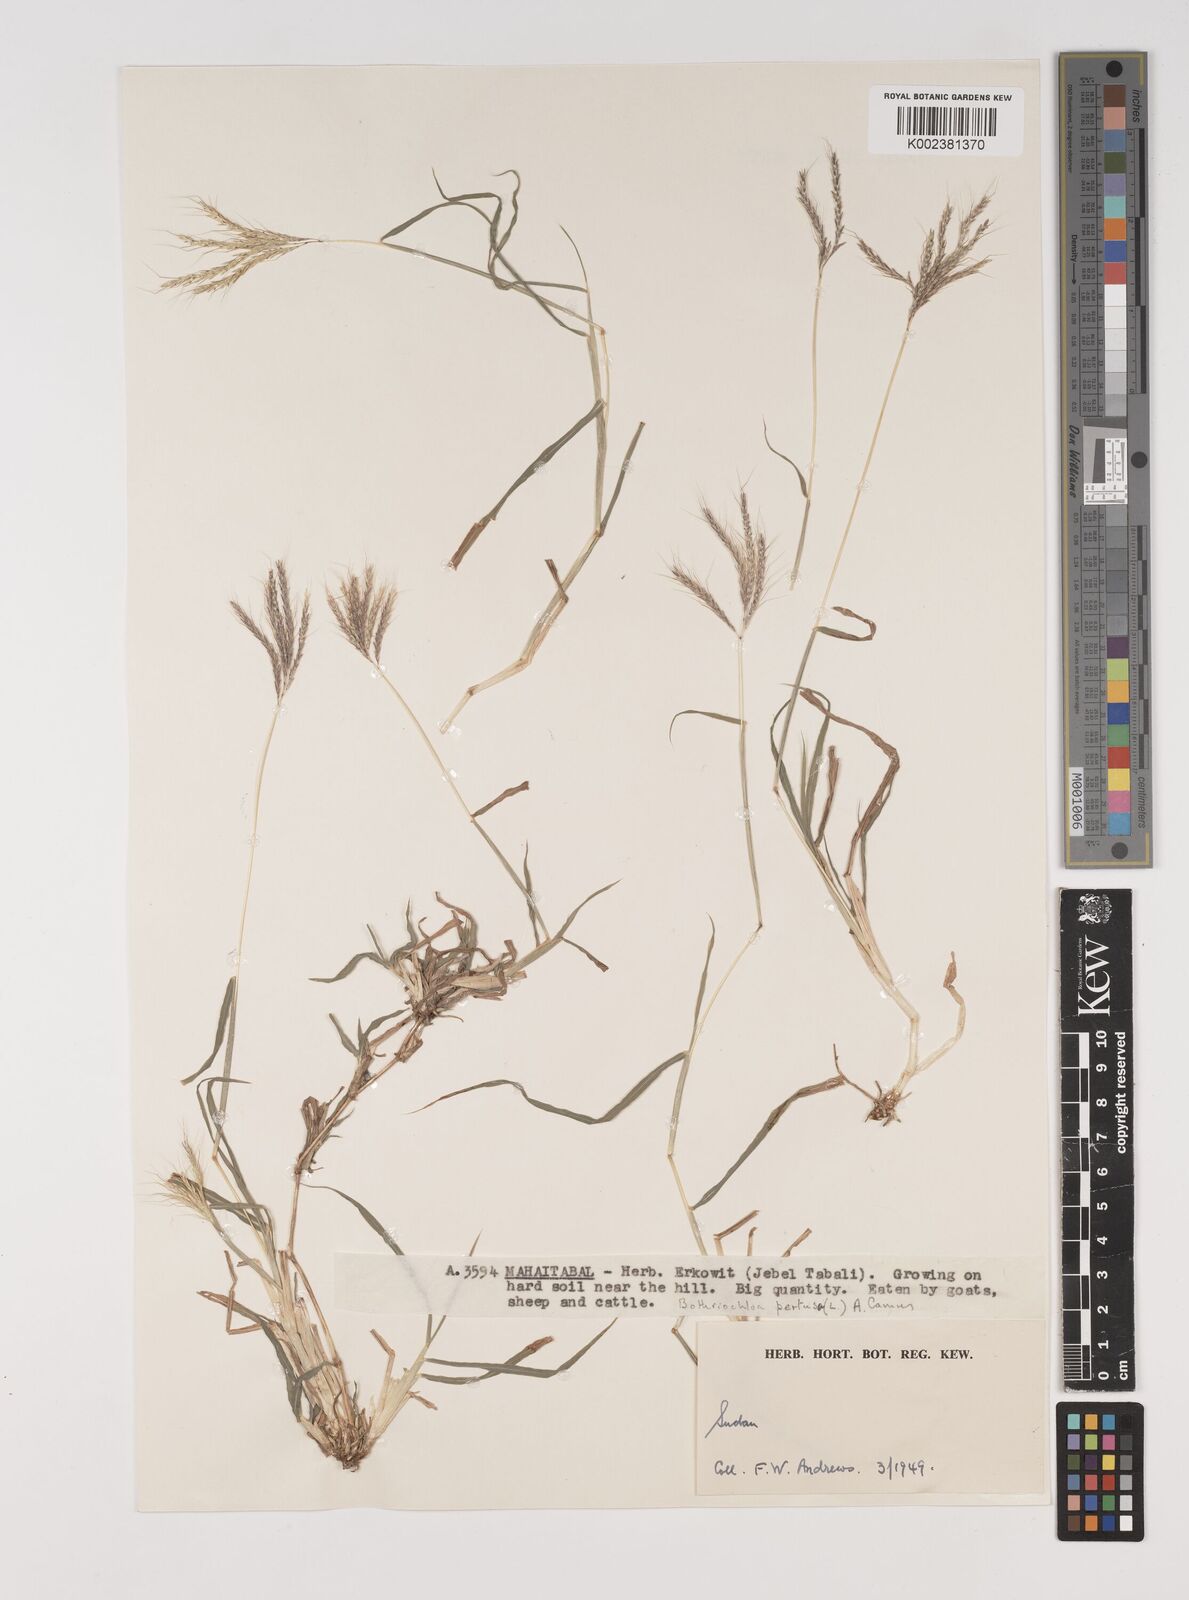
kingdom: Plantae
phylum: Tracheophyta
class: Liliopsida
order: Poales
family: Poaceae
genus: Bothriochloa
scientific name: Bothriochloa insculpta
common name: Creeping-bluegrass
